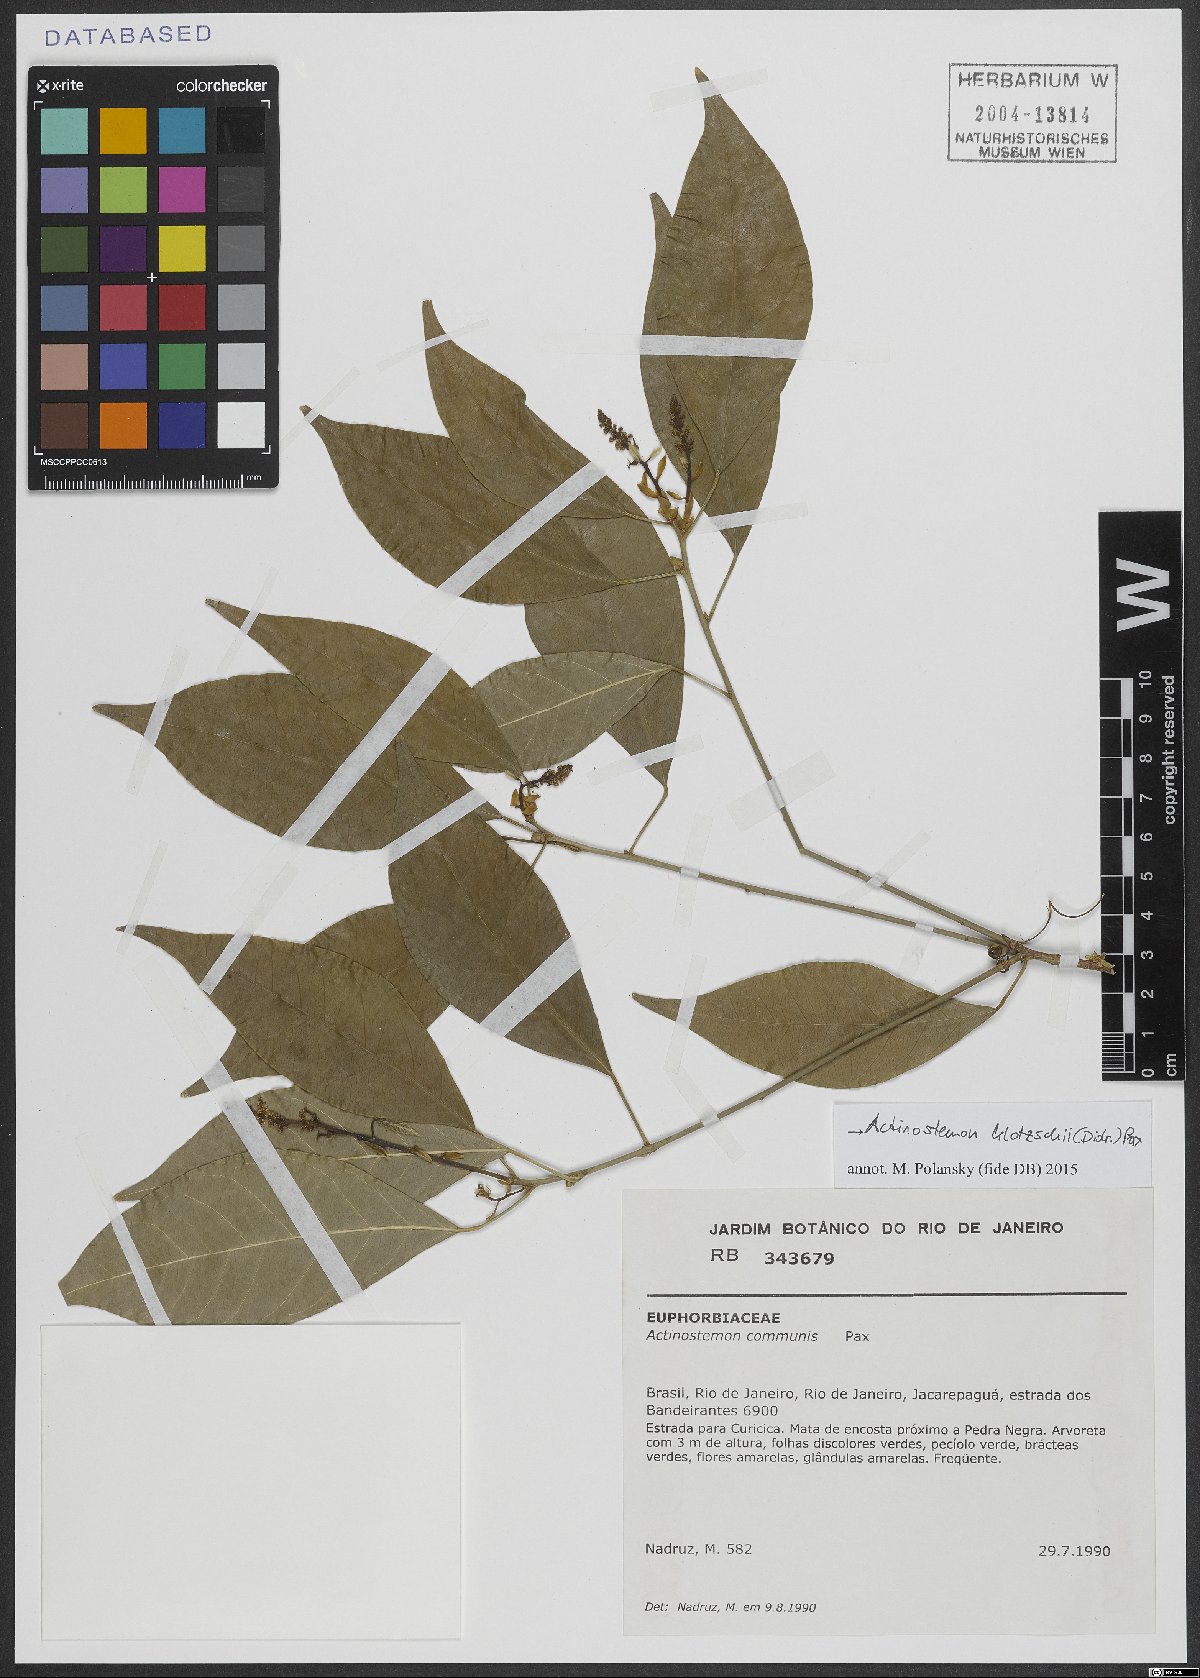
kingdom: Plantae
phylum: Tracheophyta
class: Magnoliopsida
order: Malpighiales
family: Euphorbiaceae
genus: Actinostemon
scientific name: Actinostemon klotzschii
